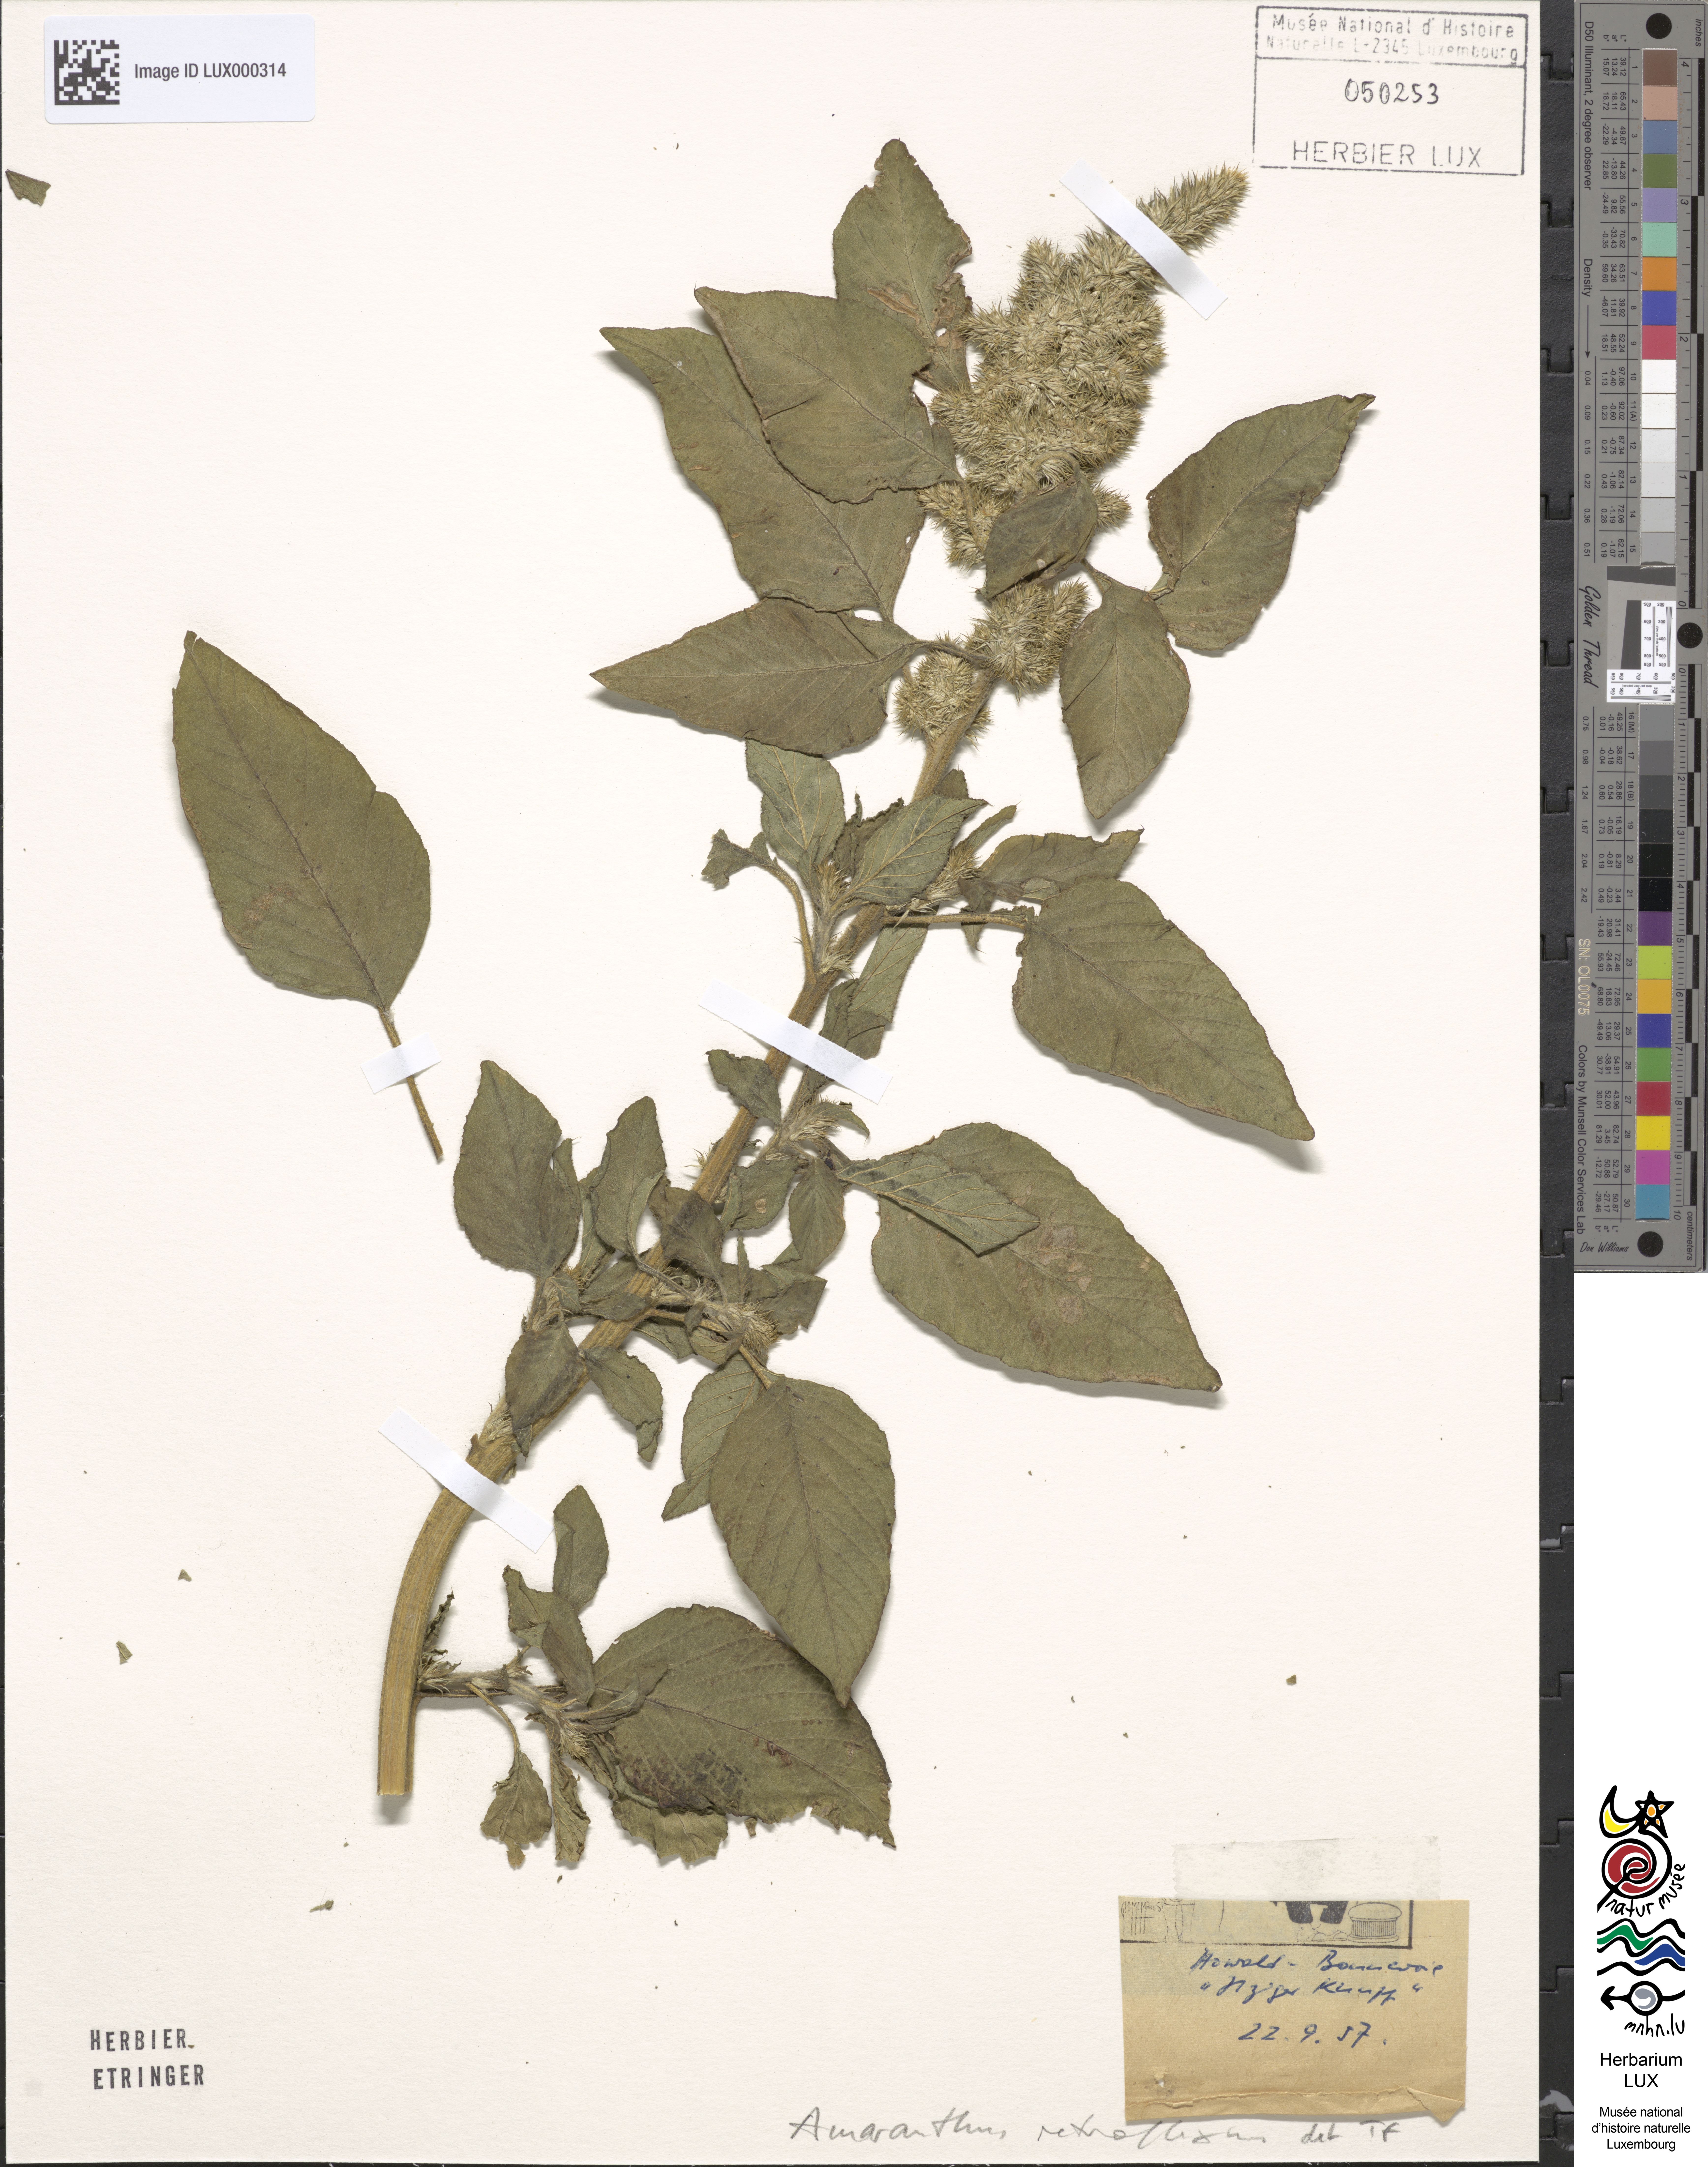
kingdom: Plantae
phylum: Tracheophyta
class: Magnoliopsida
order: Caryophyllales
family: Amaranthaceae
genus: Amaranthus
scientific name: Amaranthus retroflexus
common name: Redroot amaranth
